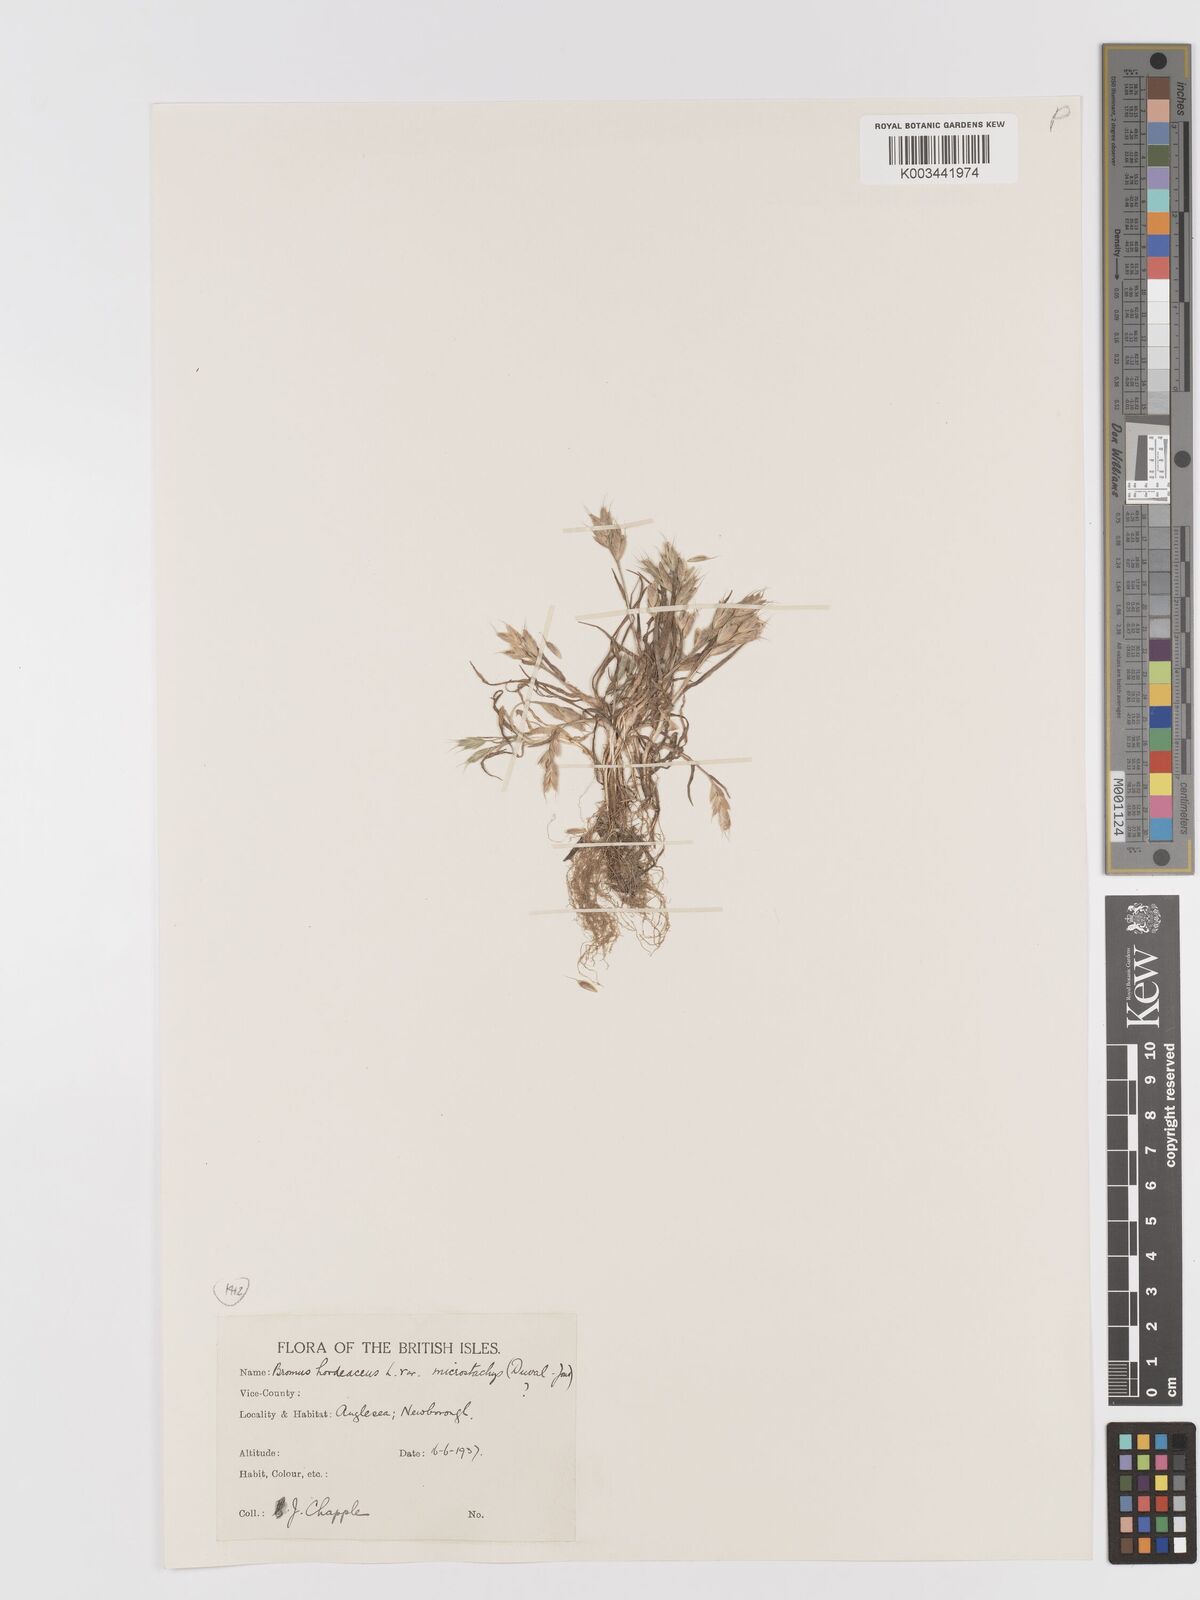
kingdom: Plantae
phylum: Tracheophyta
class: Liliopsida
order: Poales
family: Poaceae
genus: Bromus
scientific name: Bromus hordeaceus
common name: Soft brome
